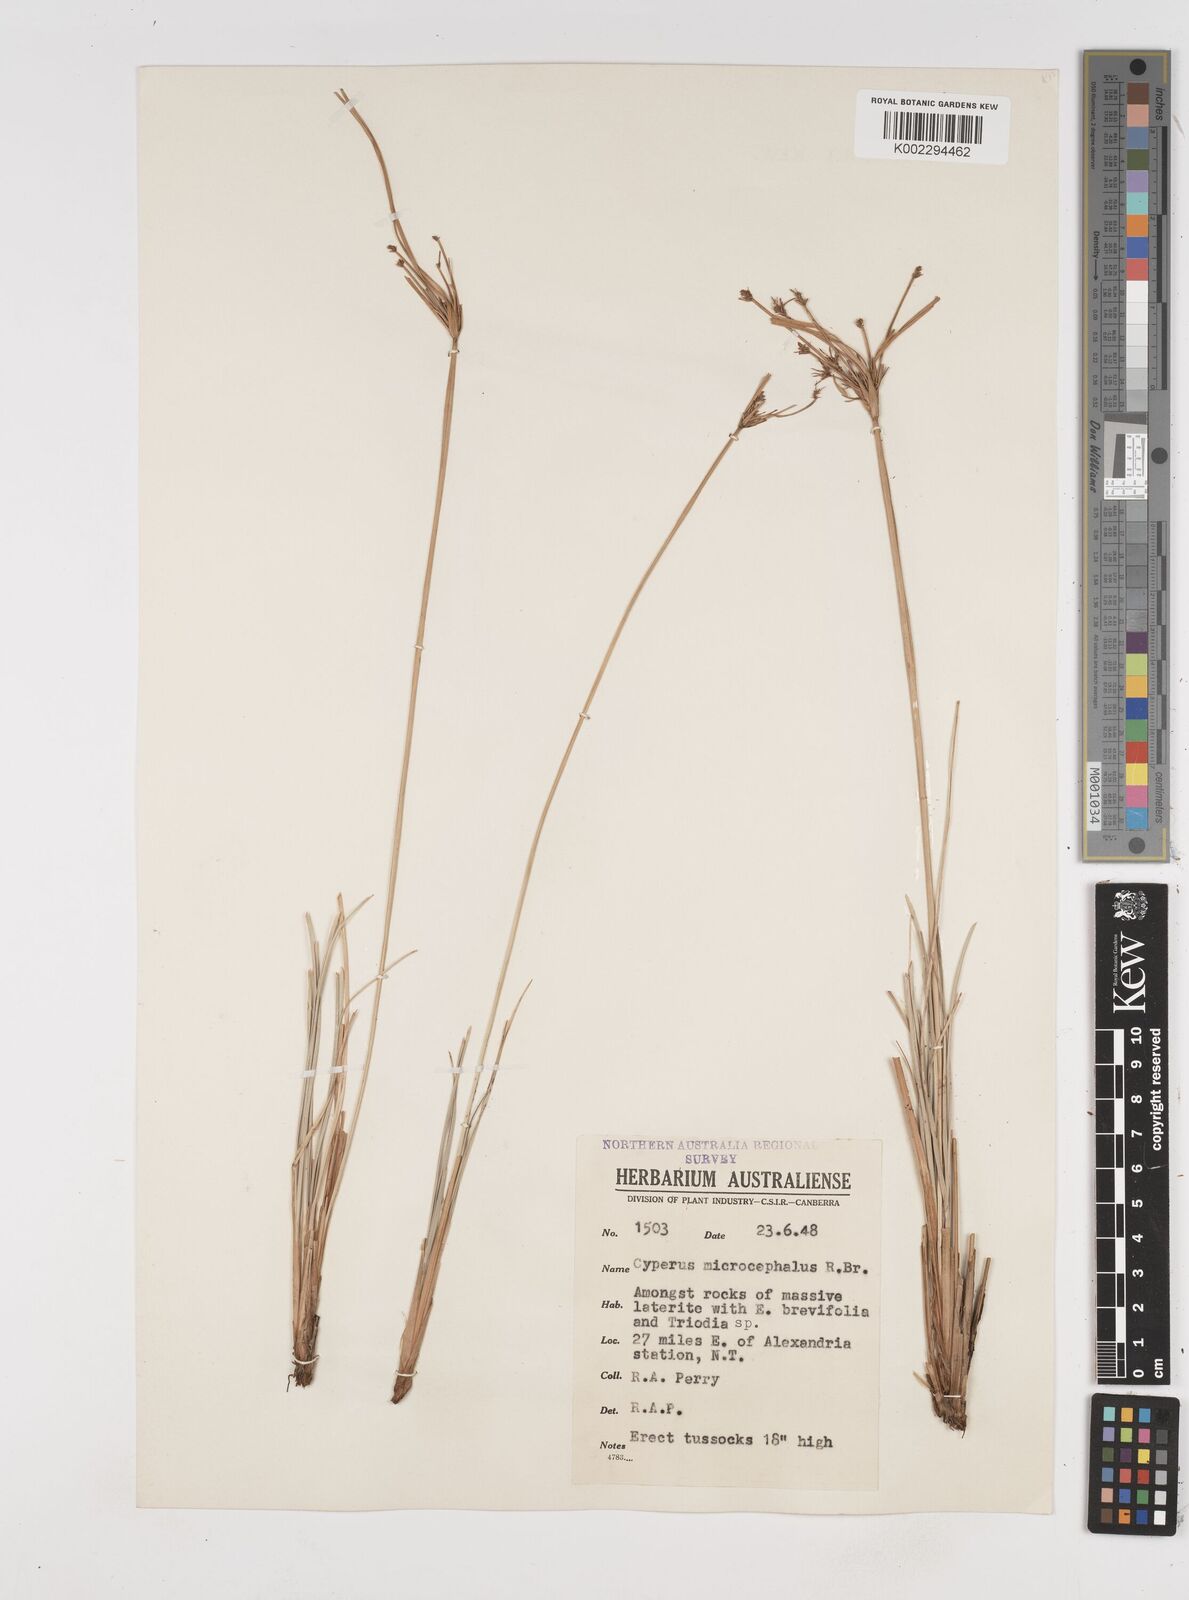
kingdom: Plantae
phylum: Tracheophyta
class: Liliopsida
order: Poales
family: Cyperaceae
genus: Cyperus
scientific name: Cyperus microcephalus
